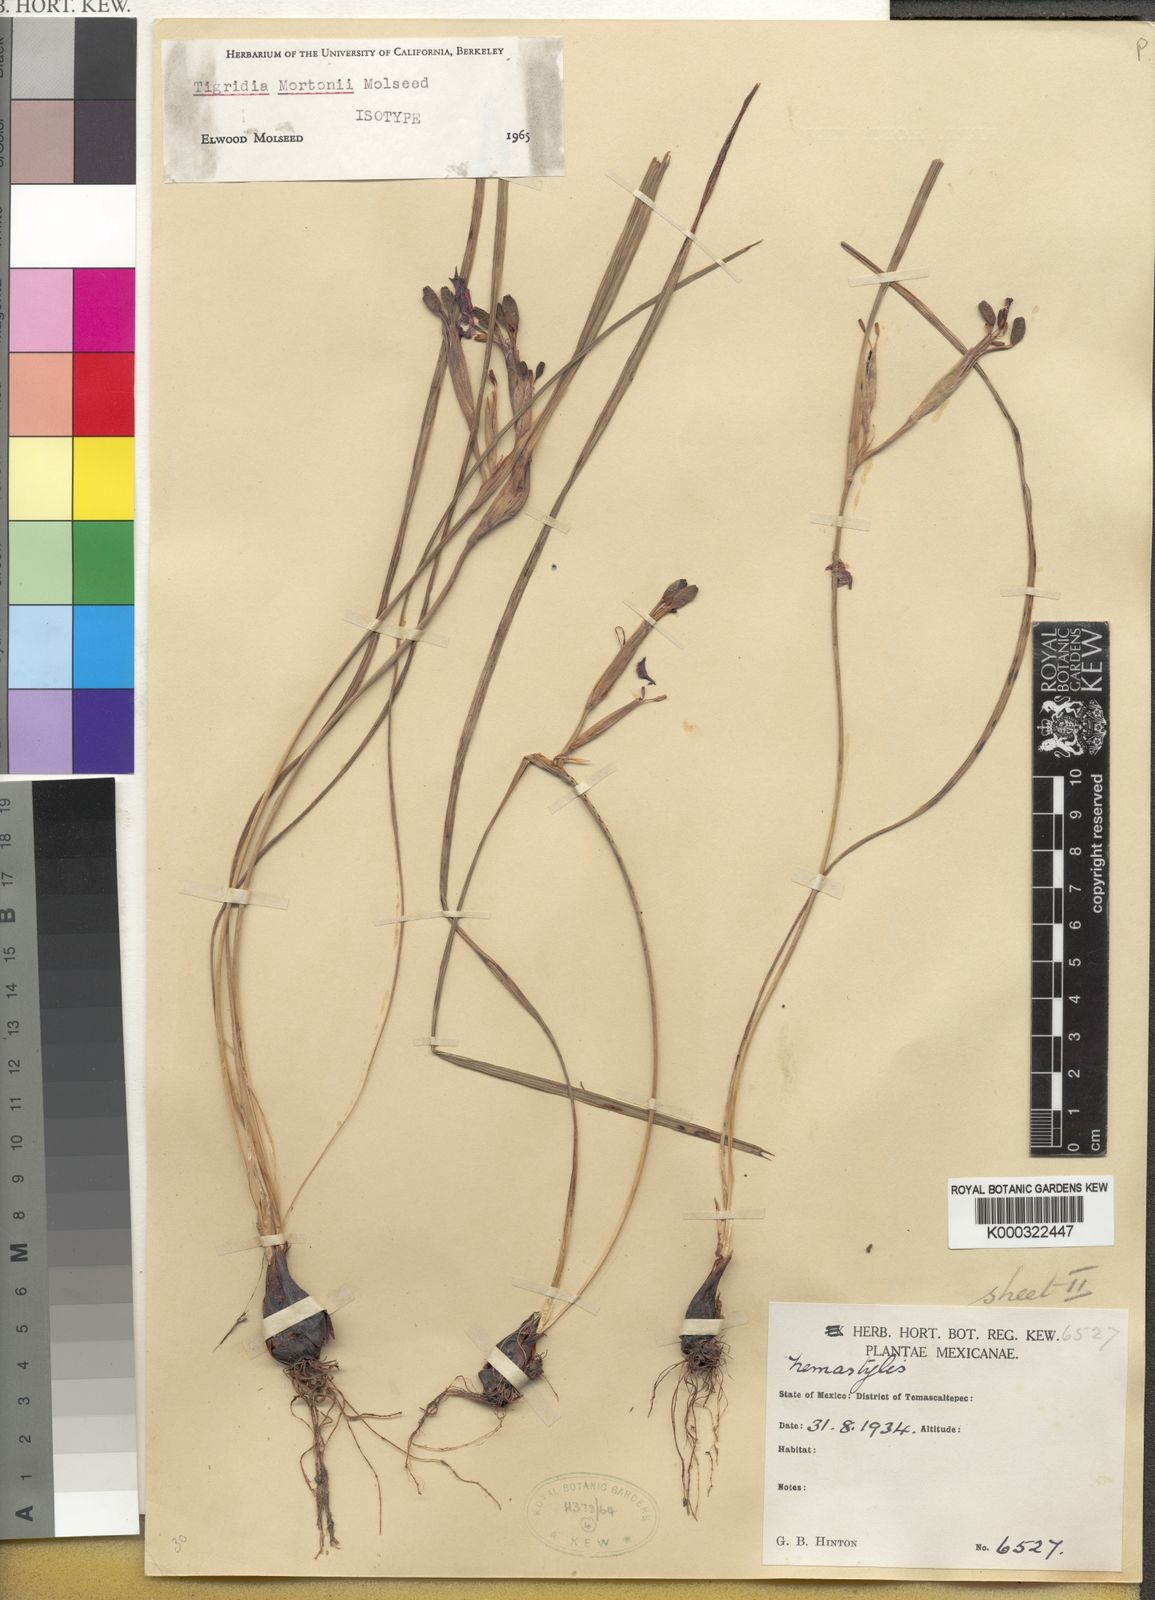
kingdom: Plantae
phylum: Tracheophyta
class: Liliopsida
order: Asparagales
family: Iridaceae
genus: Tigridia
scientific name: Tigridia mortonii
